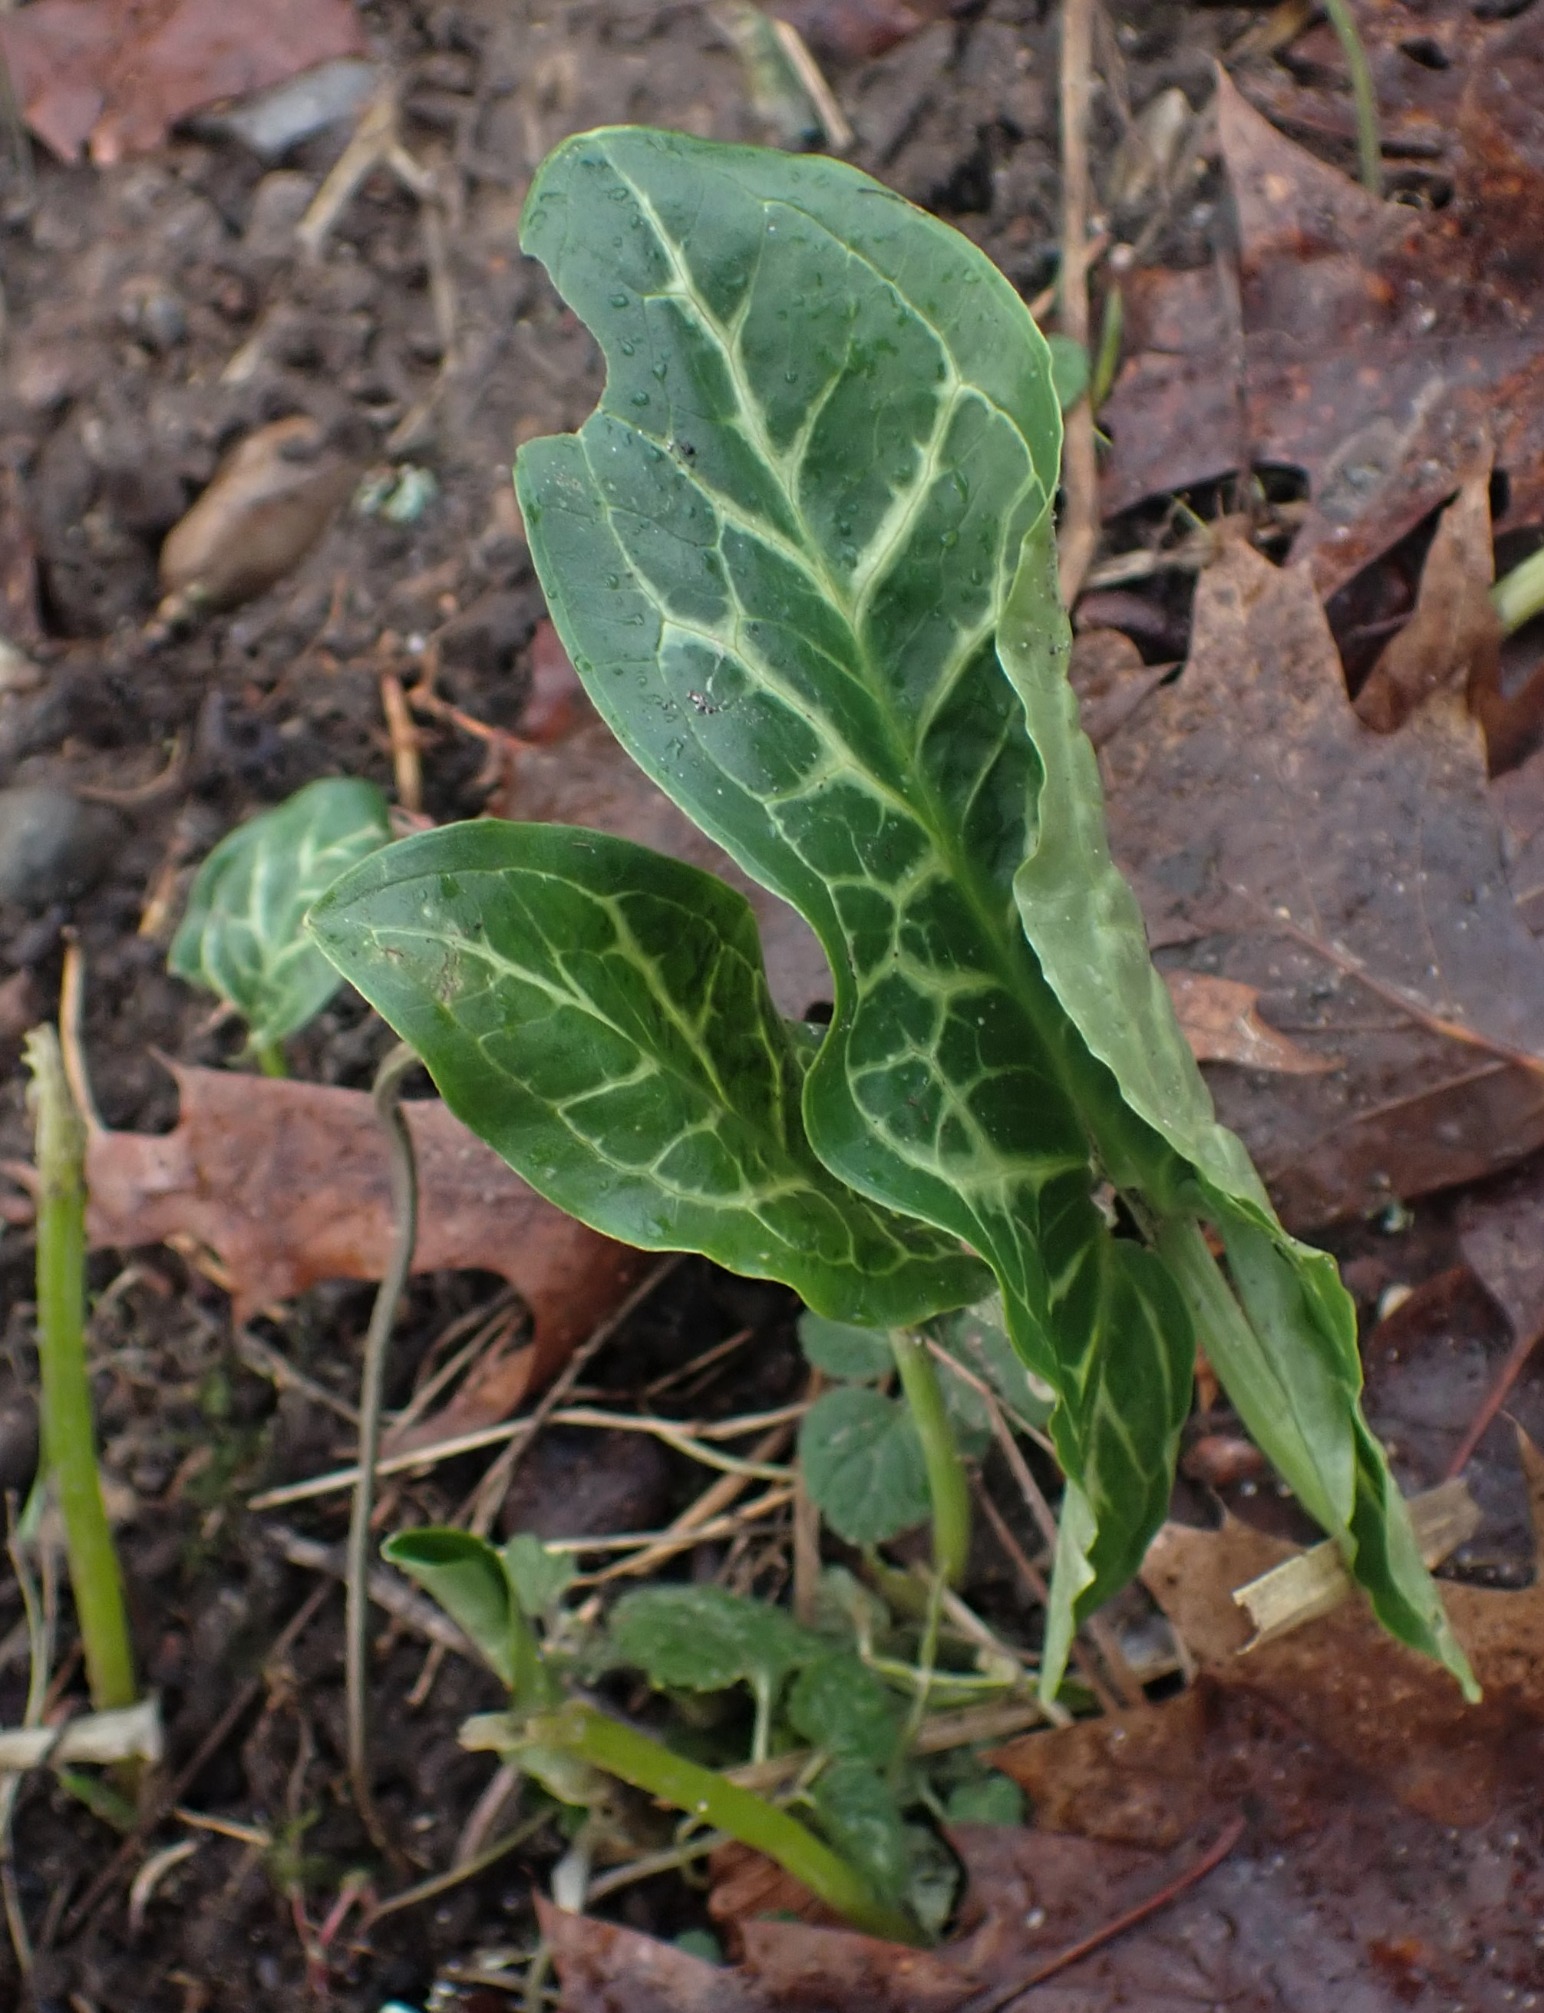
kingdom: Plantae
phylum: Tracheophyta
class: Liliopsida
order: Alismatales
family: Araceae
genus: Arum
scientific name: Arum italicum
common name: Italiensk arum
